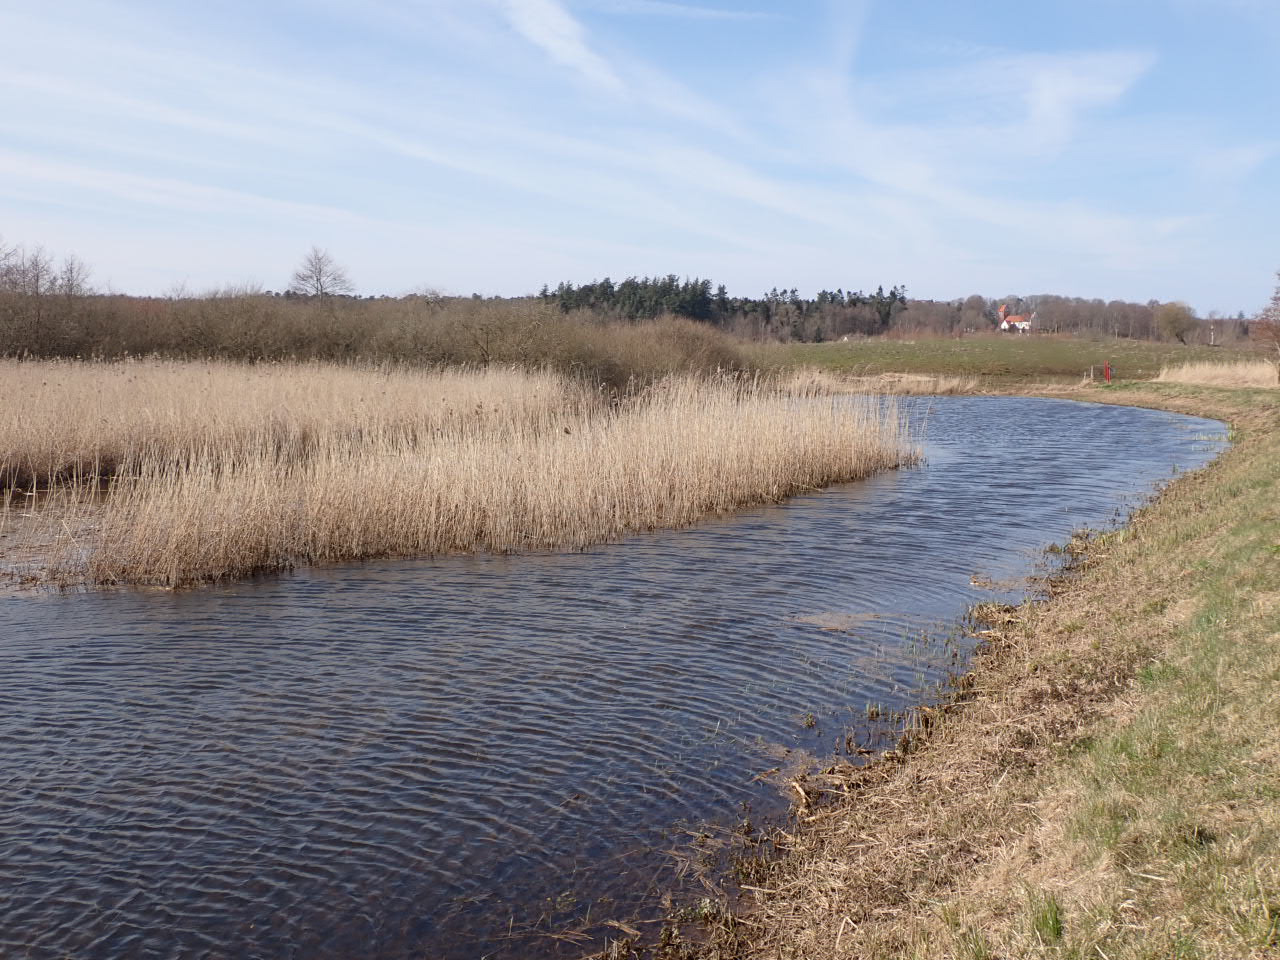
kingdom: Plantae
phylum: Tracheophyta
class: Liliopsida
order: Poales
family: Poaceae
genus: Phragmites
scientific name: Phragmites australis
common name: Tagrør
